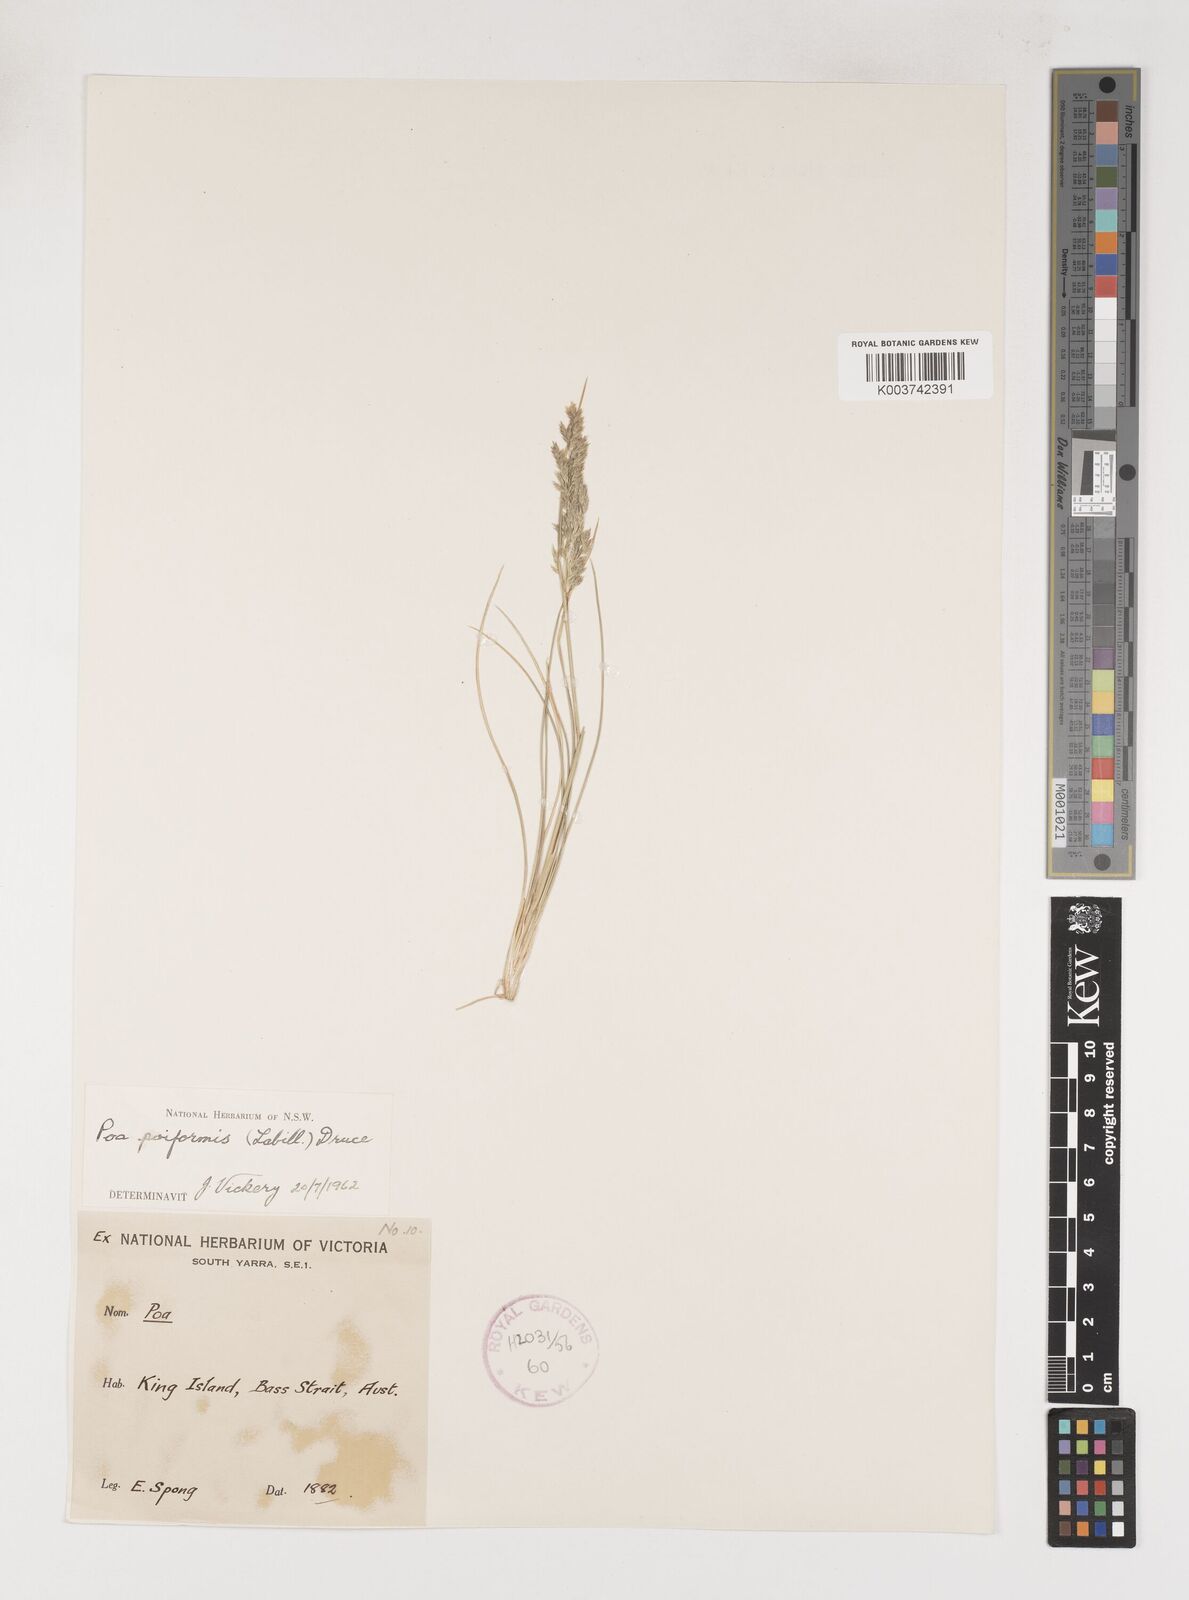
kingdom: Plantae
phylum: Tracheophyta
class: Liliopsida
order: Poales
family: Poaceae
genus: Poa
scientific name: Poa poiformis
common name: Tussock poa
